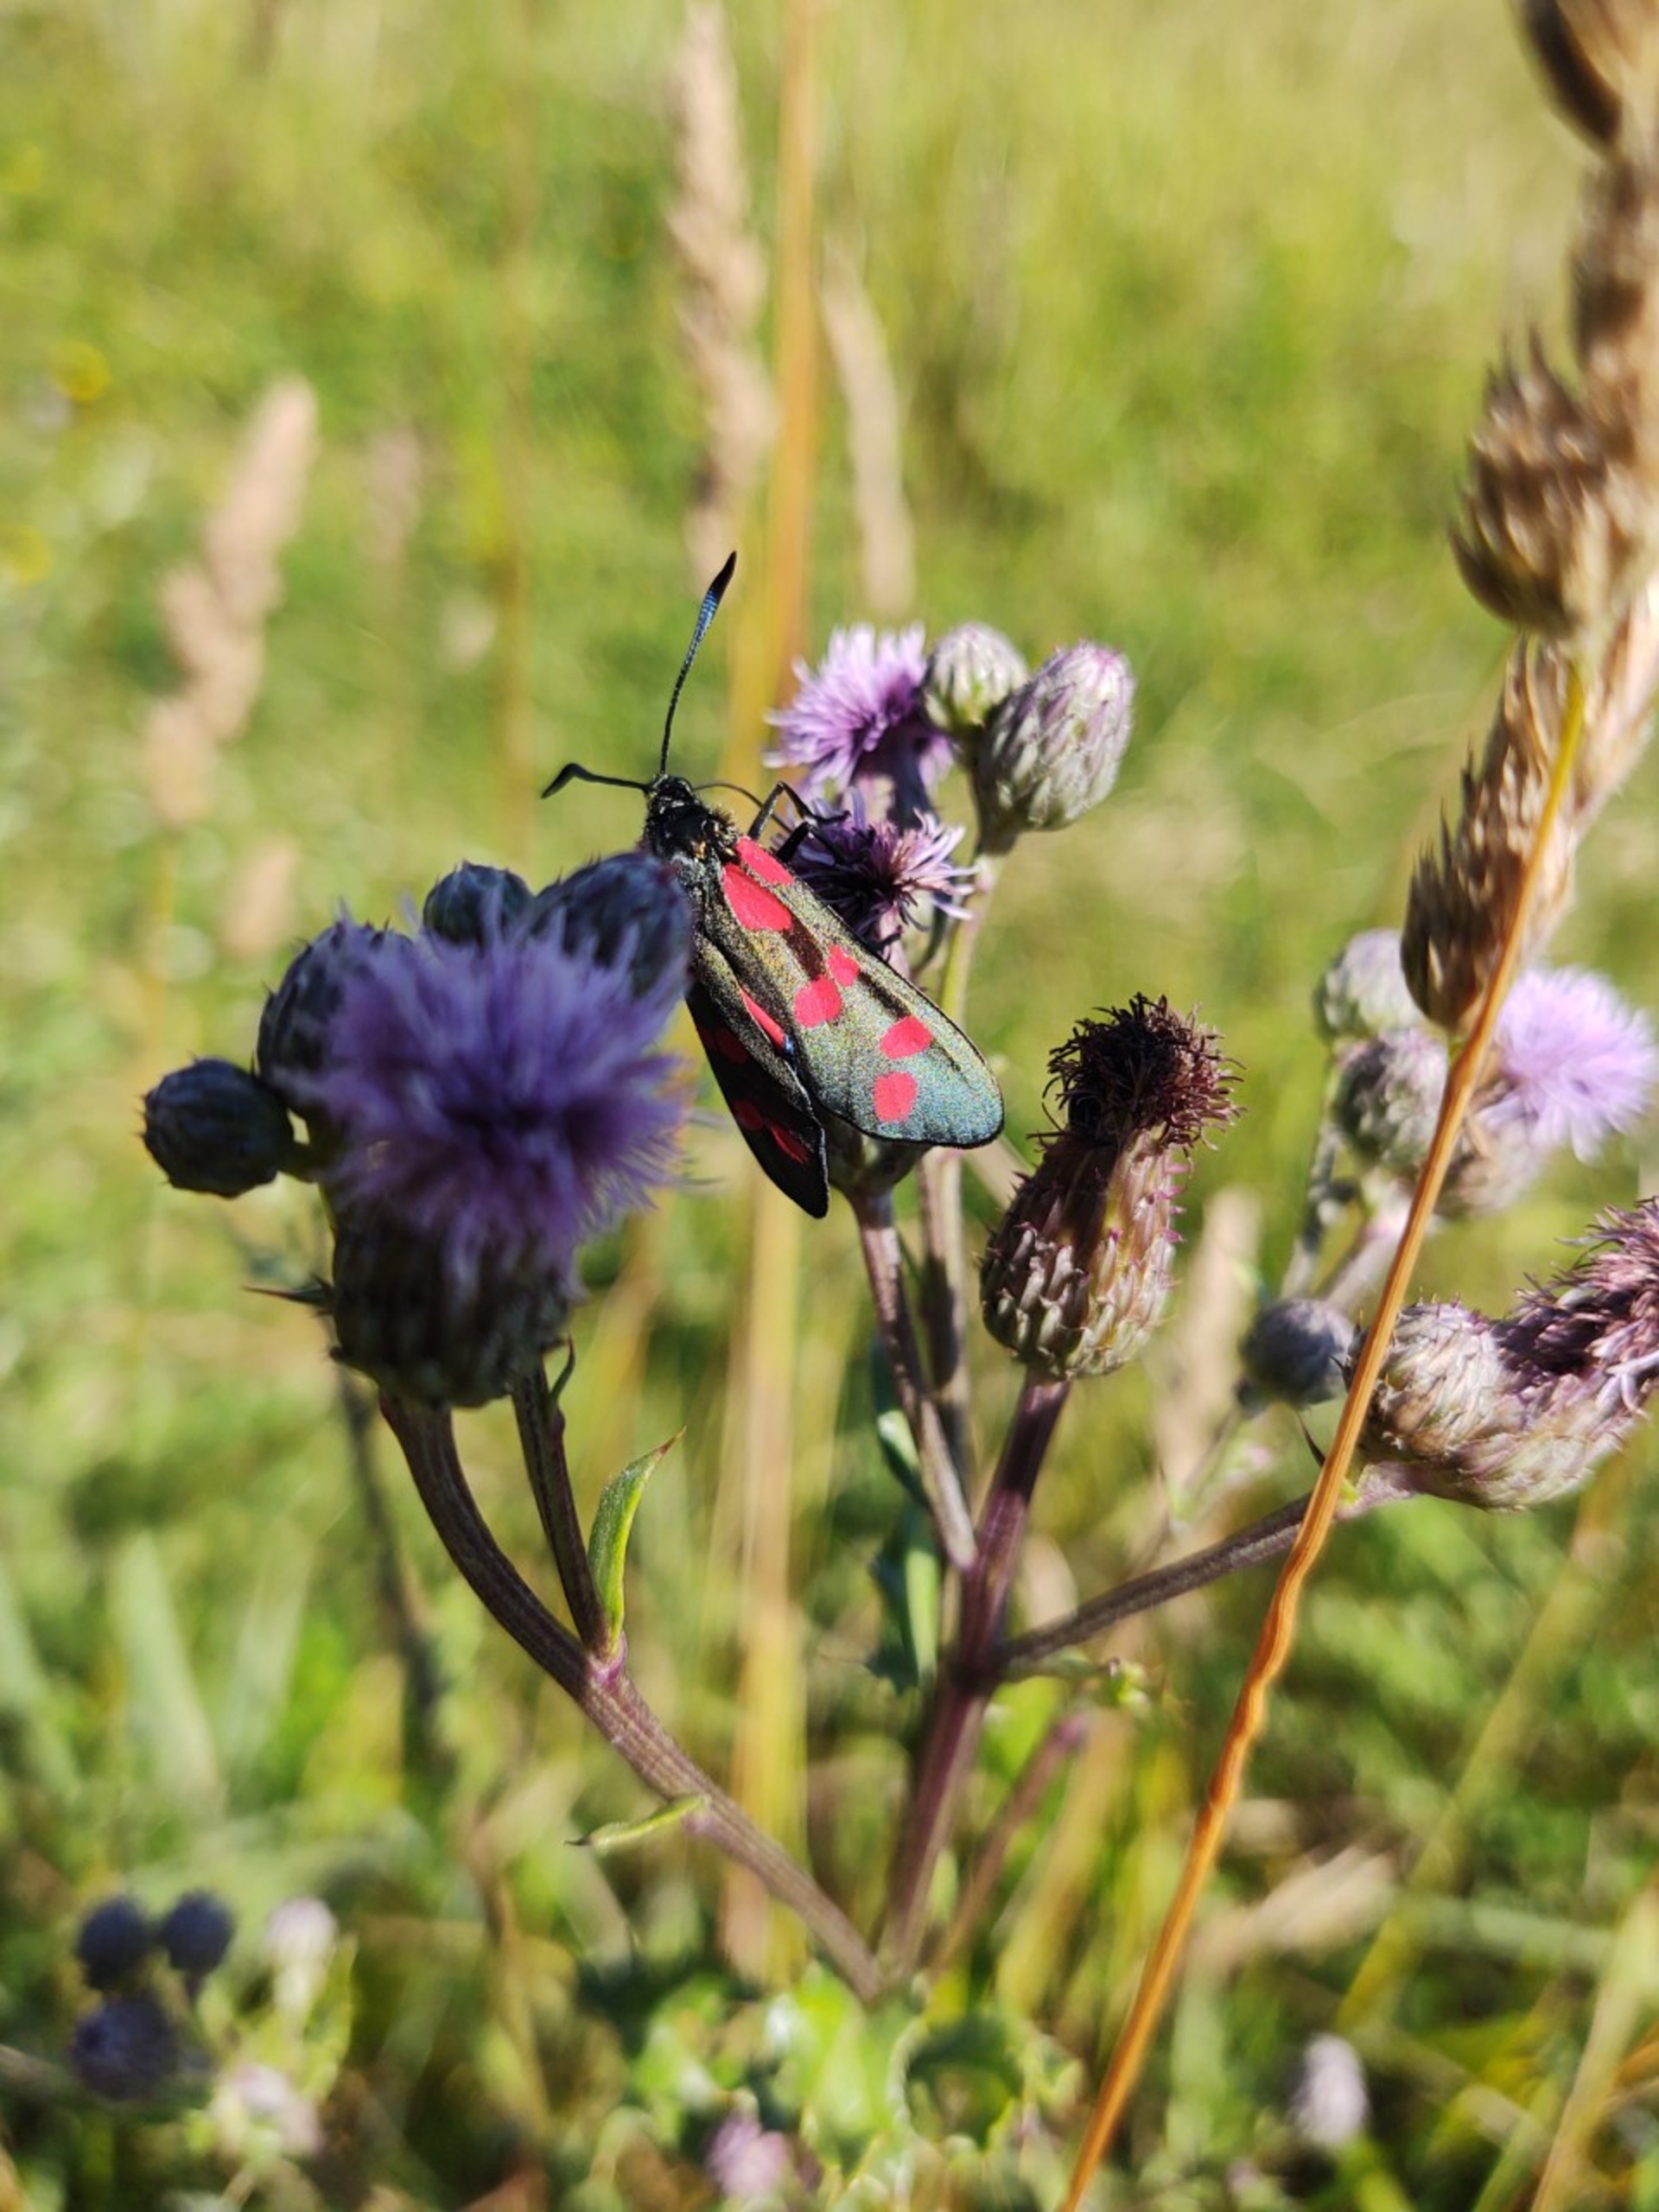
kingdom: Animalia
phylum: Arthropoda
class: Insecta
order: Lepidoptera
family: Zygaenidae
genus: Zygaena
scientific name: Zygaena filipendulae
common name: Seksplettet køllesværmer
